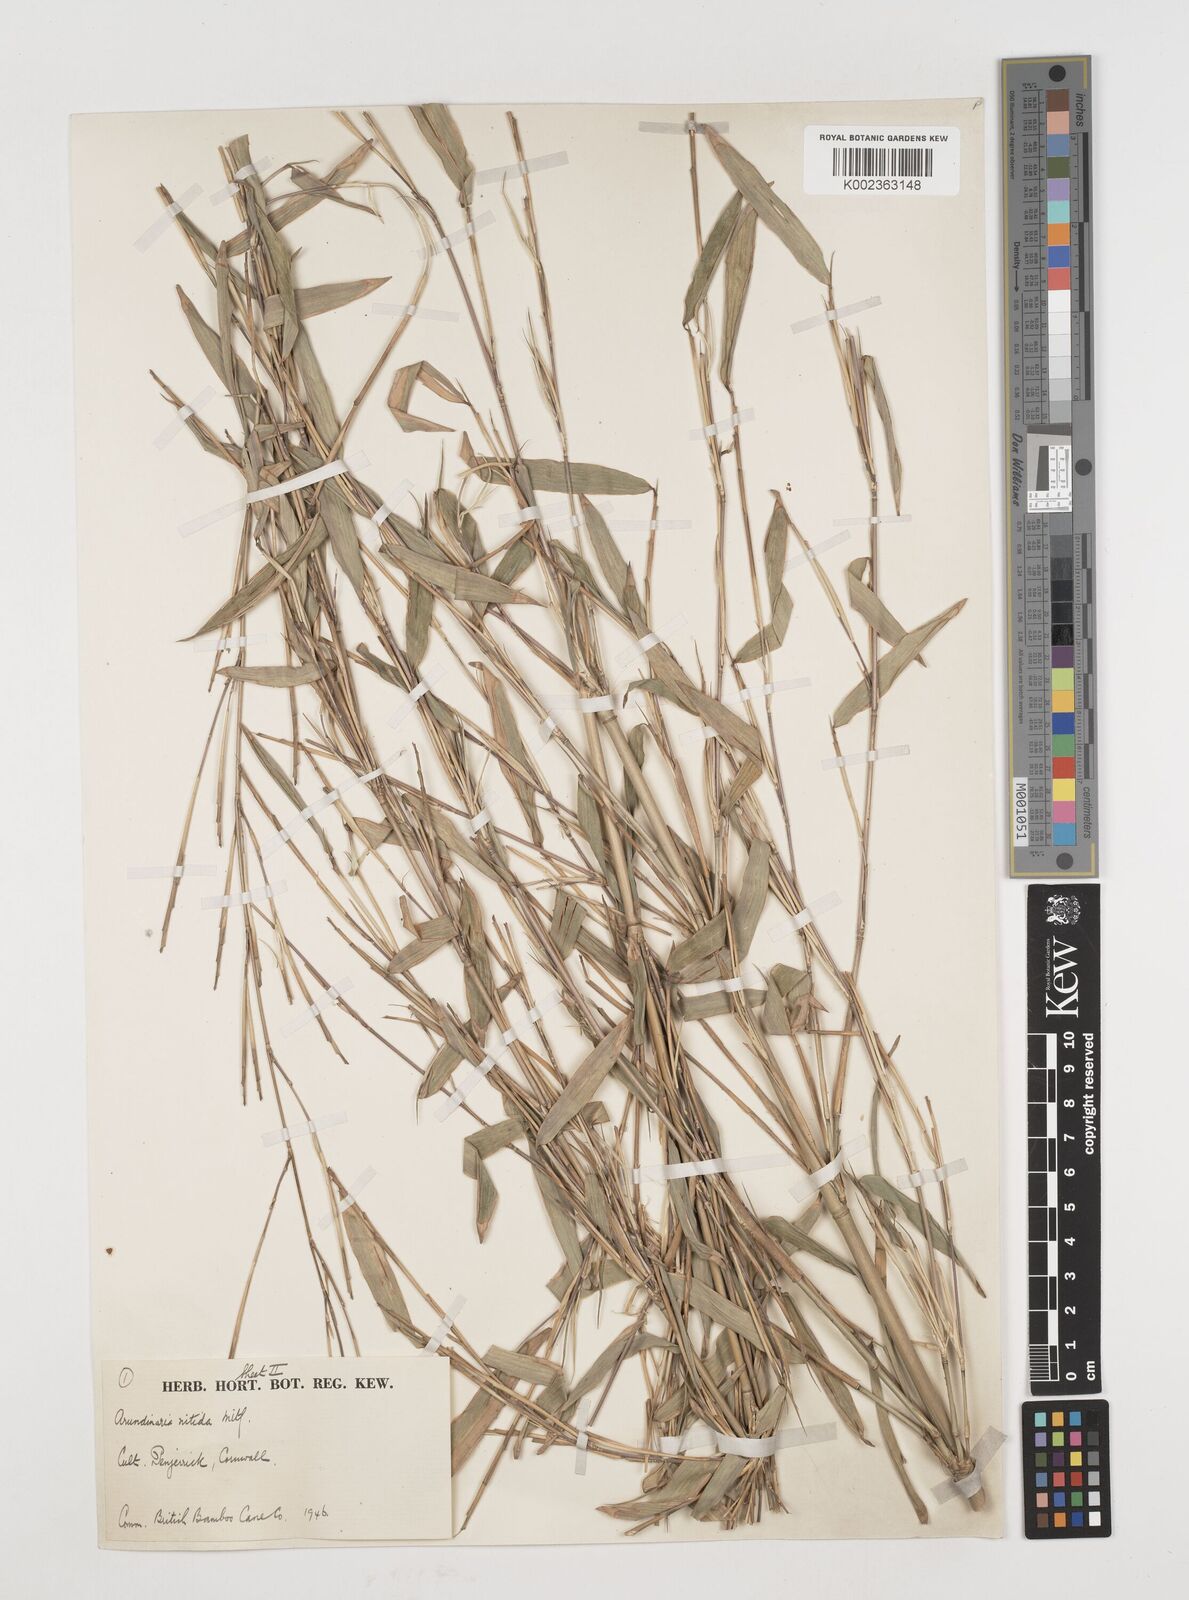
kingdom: Plantae
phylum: Tracheophyta
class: Liliopsida
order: Poales
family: Poaceae
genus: Fargesia
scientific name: Fargesia
